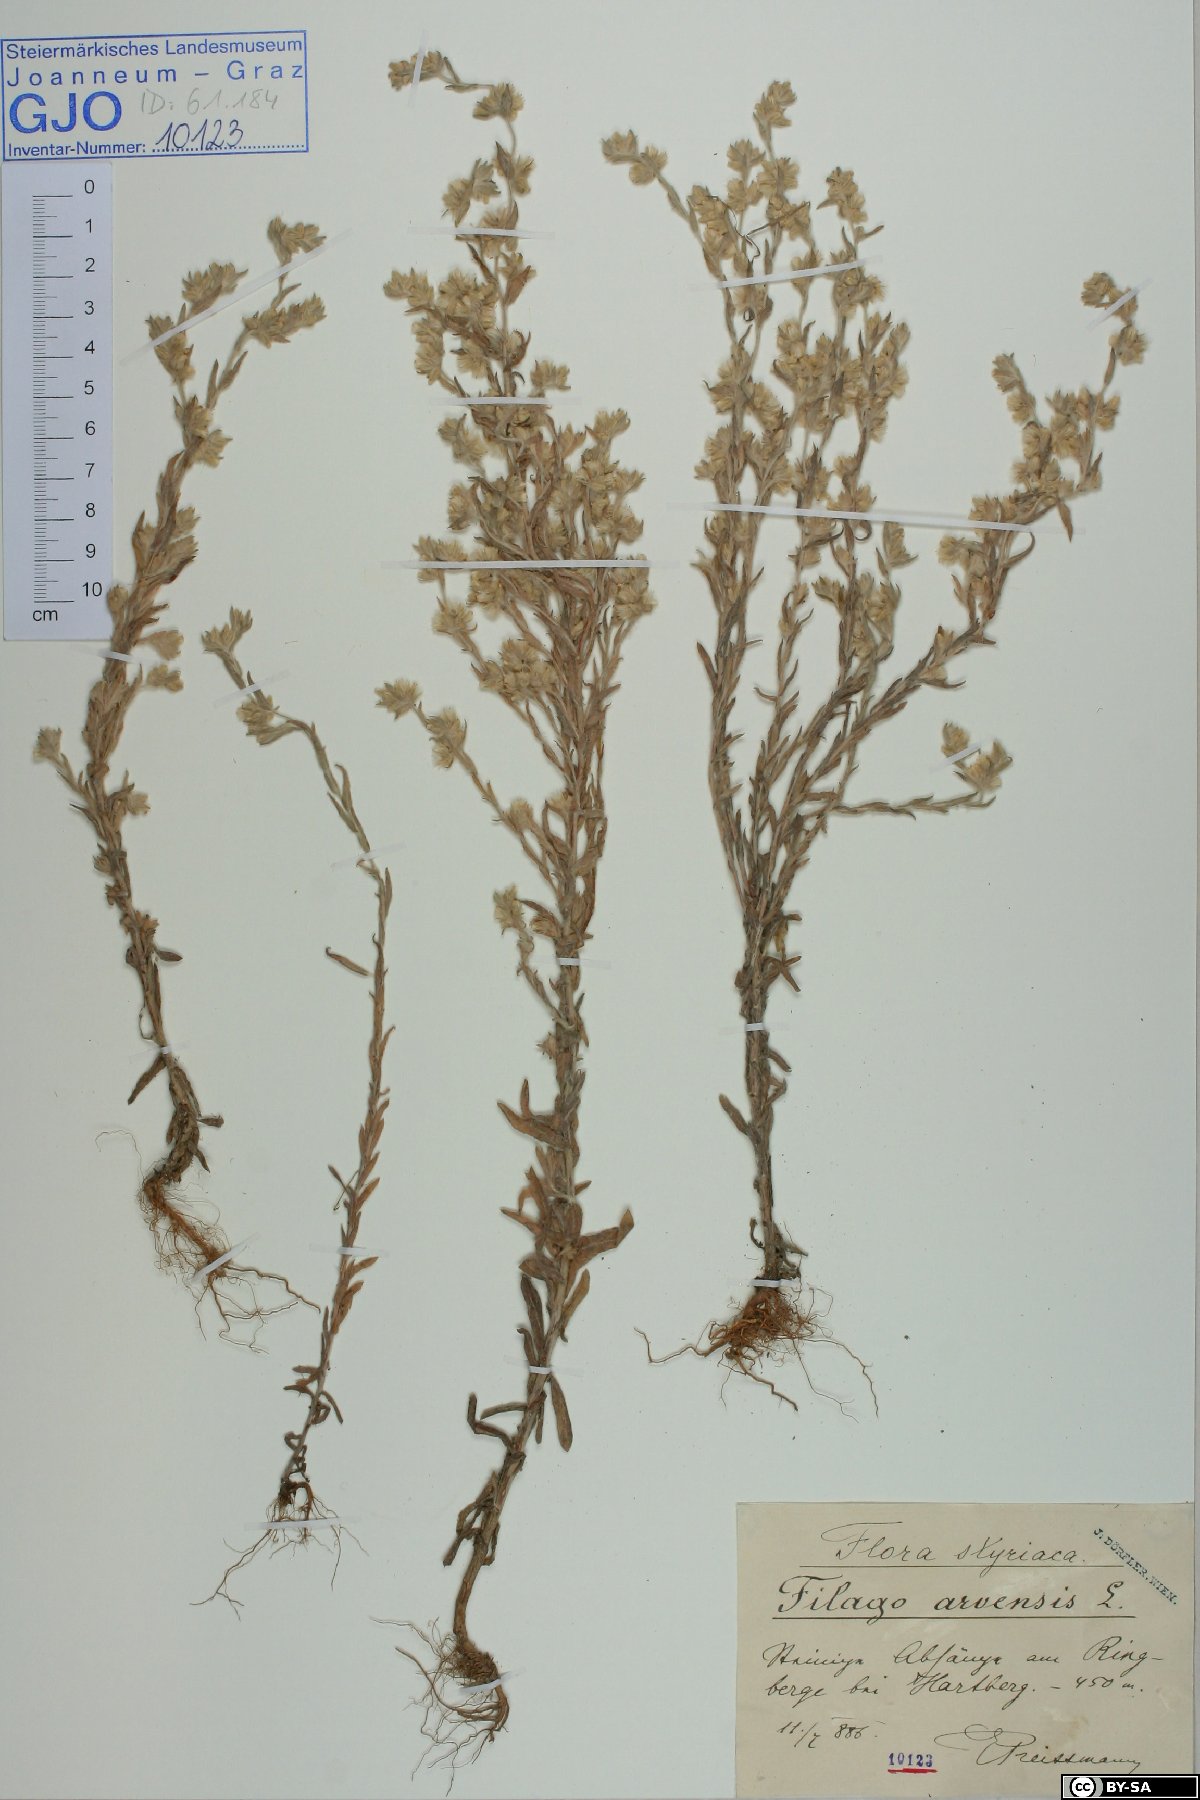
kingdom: Plantae
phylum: Tracheophyta
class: Magnoliopsida
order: Asterales
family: Asteraceae
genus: Filago
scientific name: Filago arvensis
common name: Field cudweed
